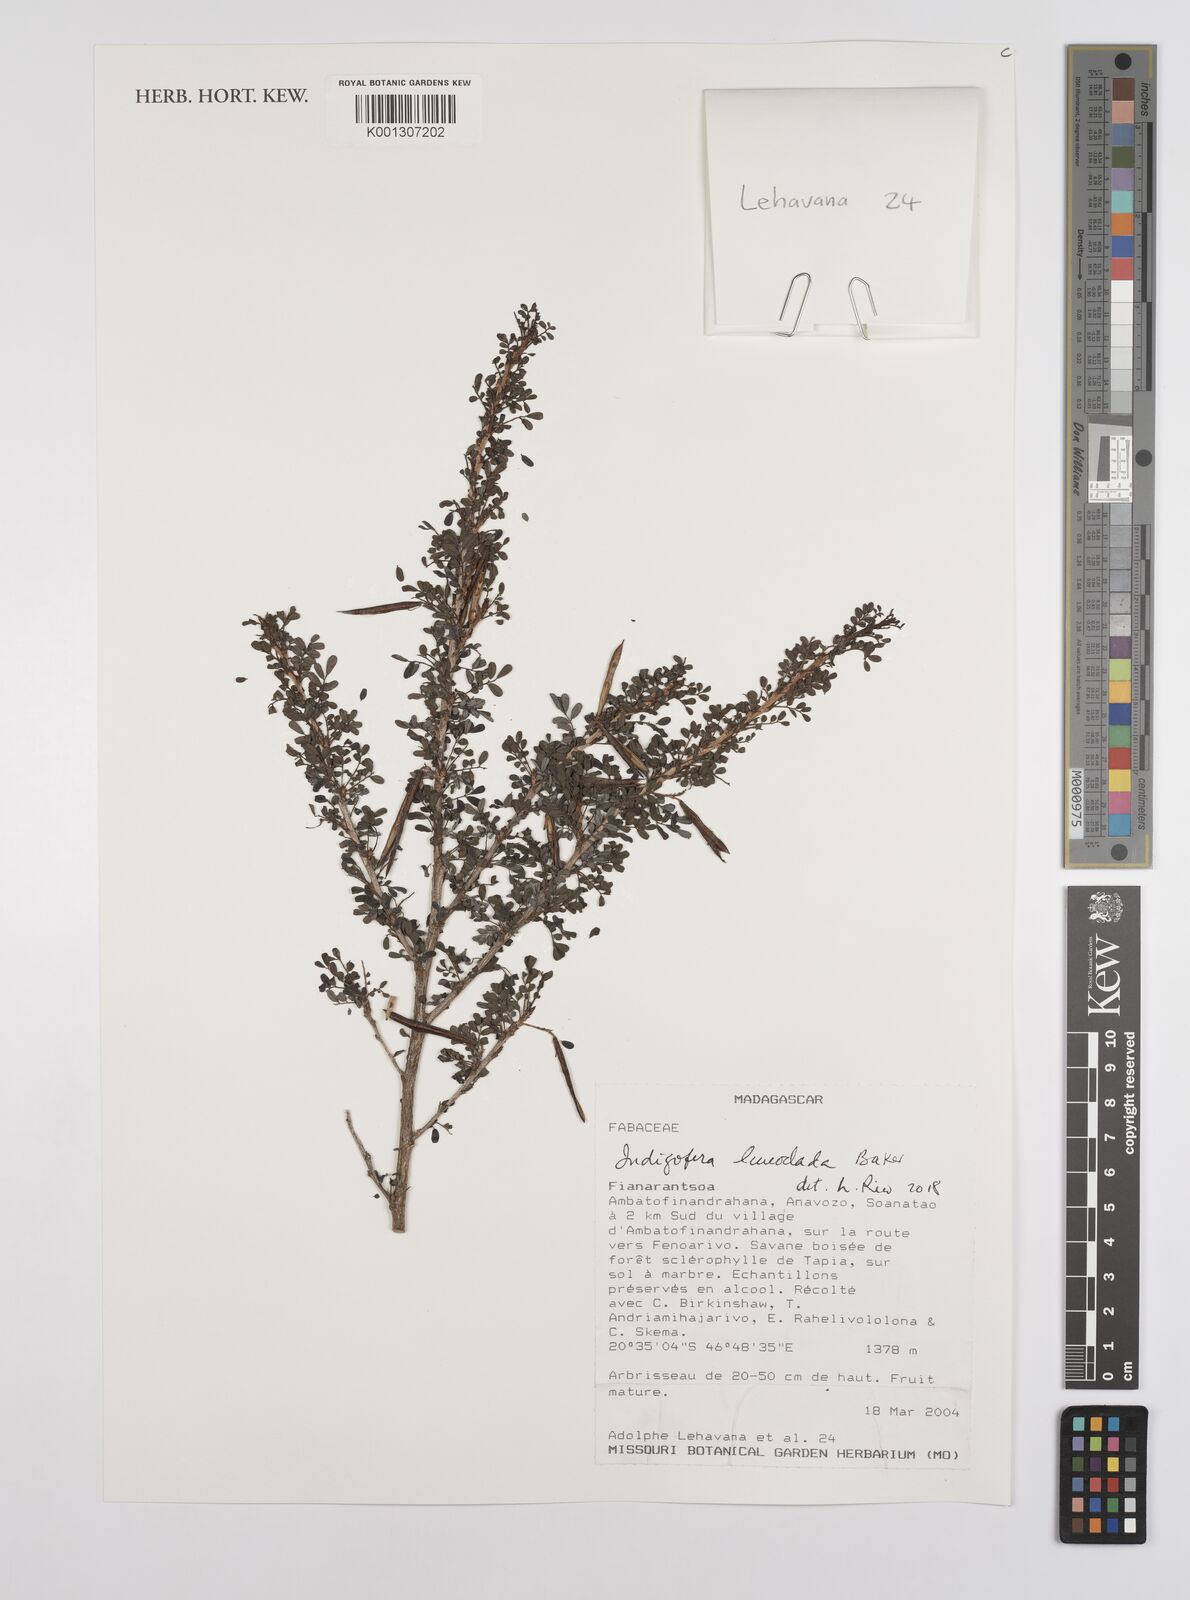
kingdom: Plantae
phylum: Tracheophyta
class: Magnoliopsida
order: Fabales
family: Fabaceae
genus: Indigofera
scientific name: Indigofera leucoclada
